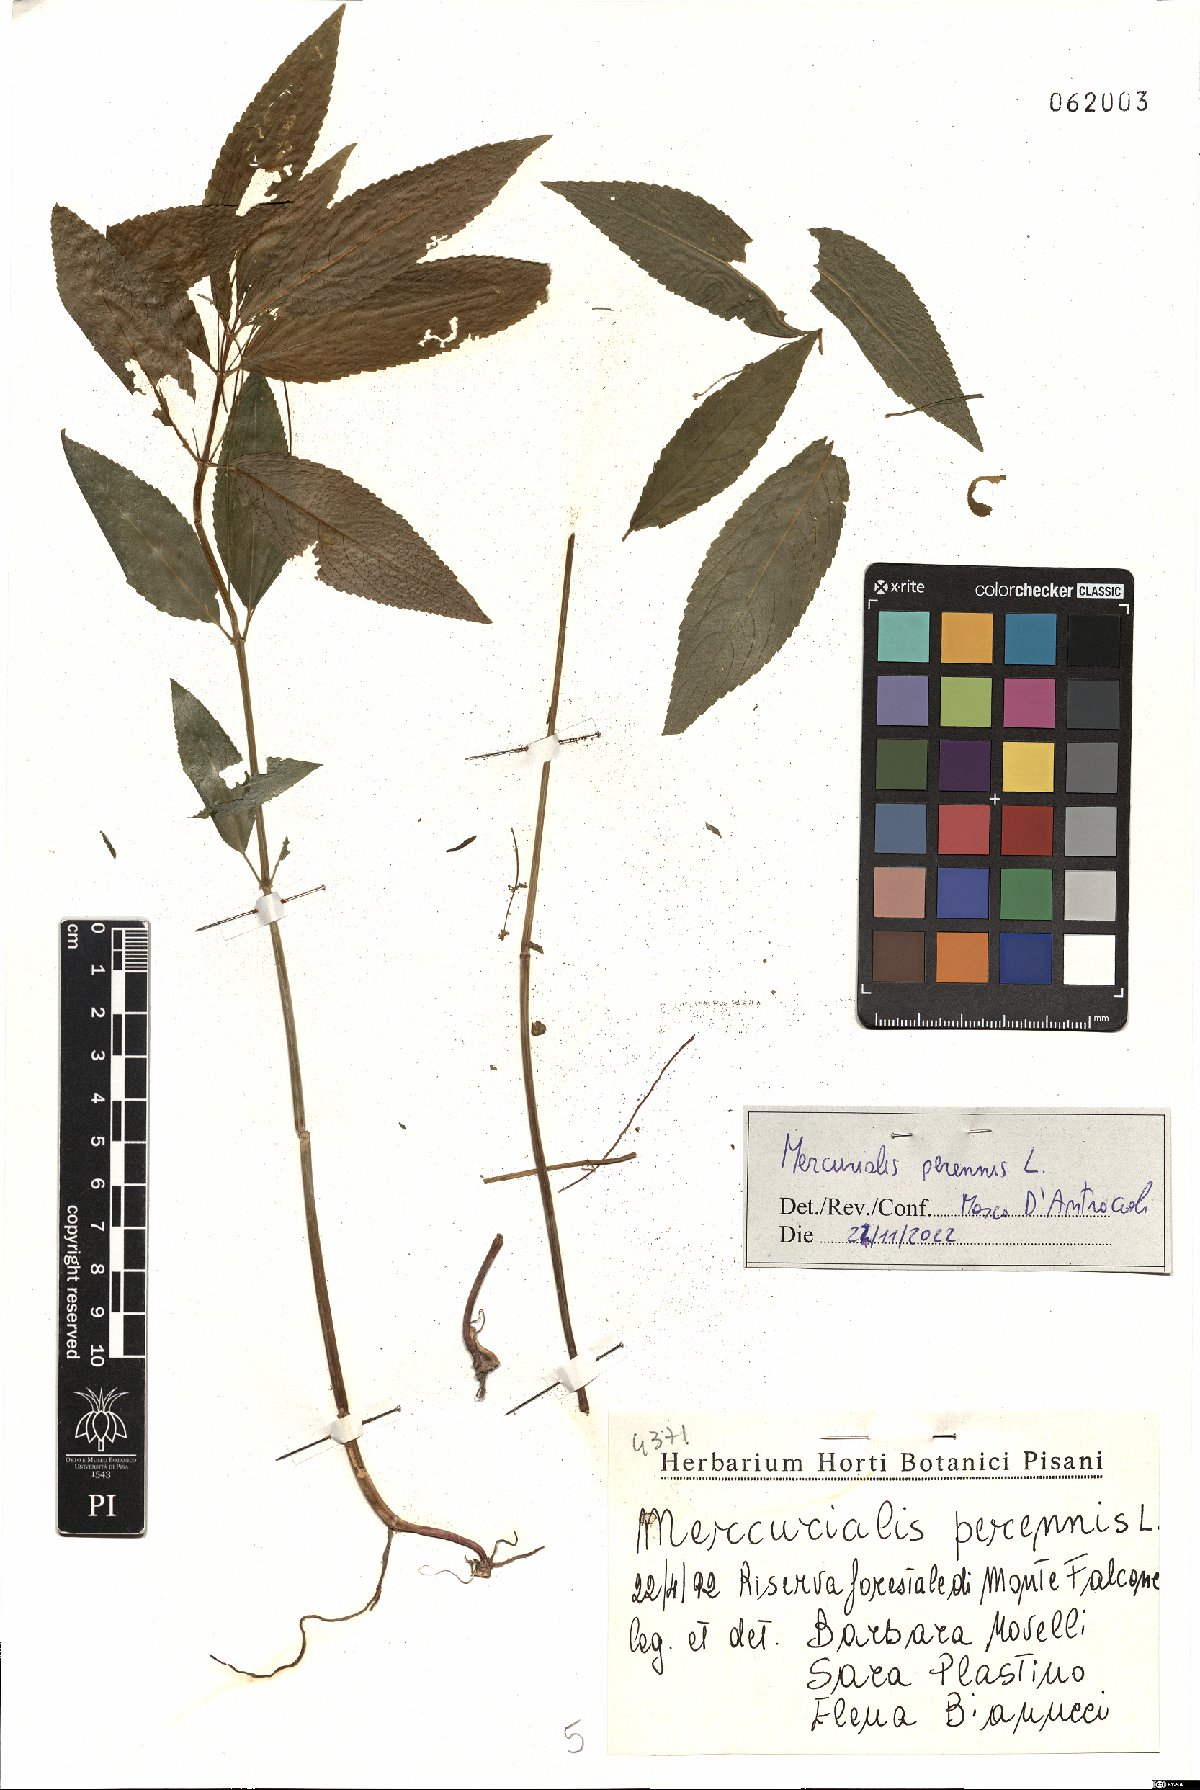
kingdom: Plantae
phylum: Tracheophyta
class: Magnoliopsida
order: Malpighiales
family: Euphorbiaceae
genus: Mercurialis
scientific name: Mercurialis perennis
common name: Dog mercury
